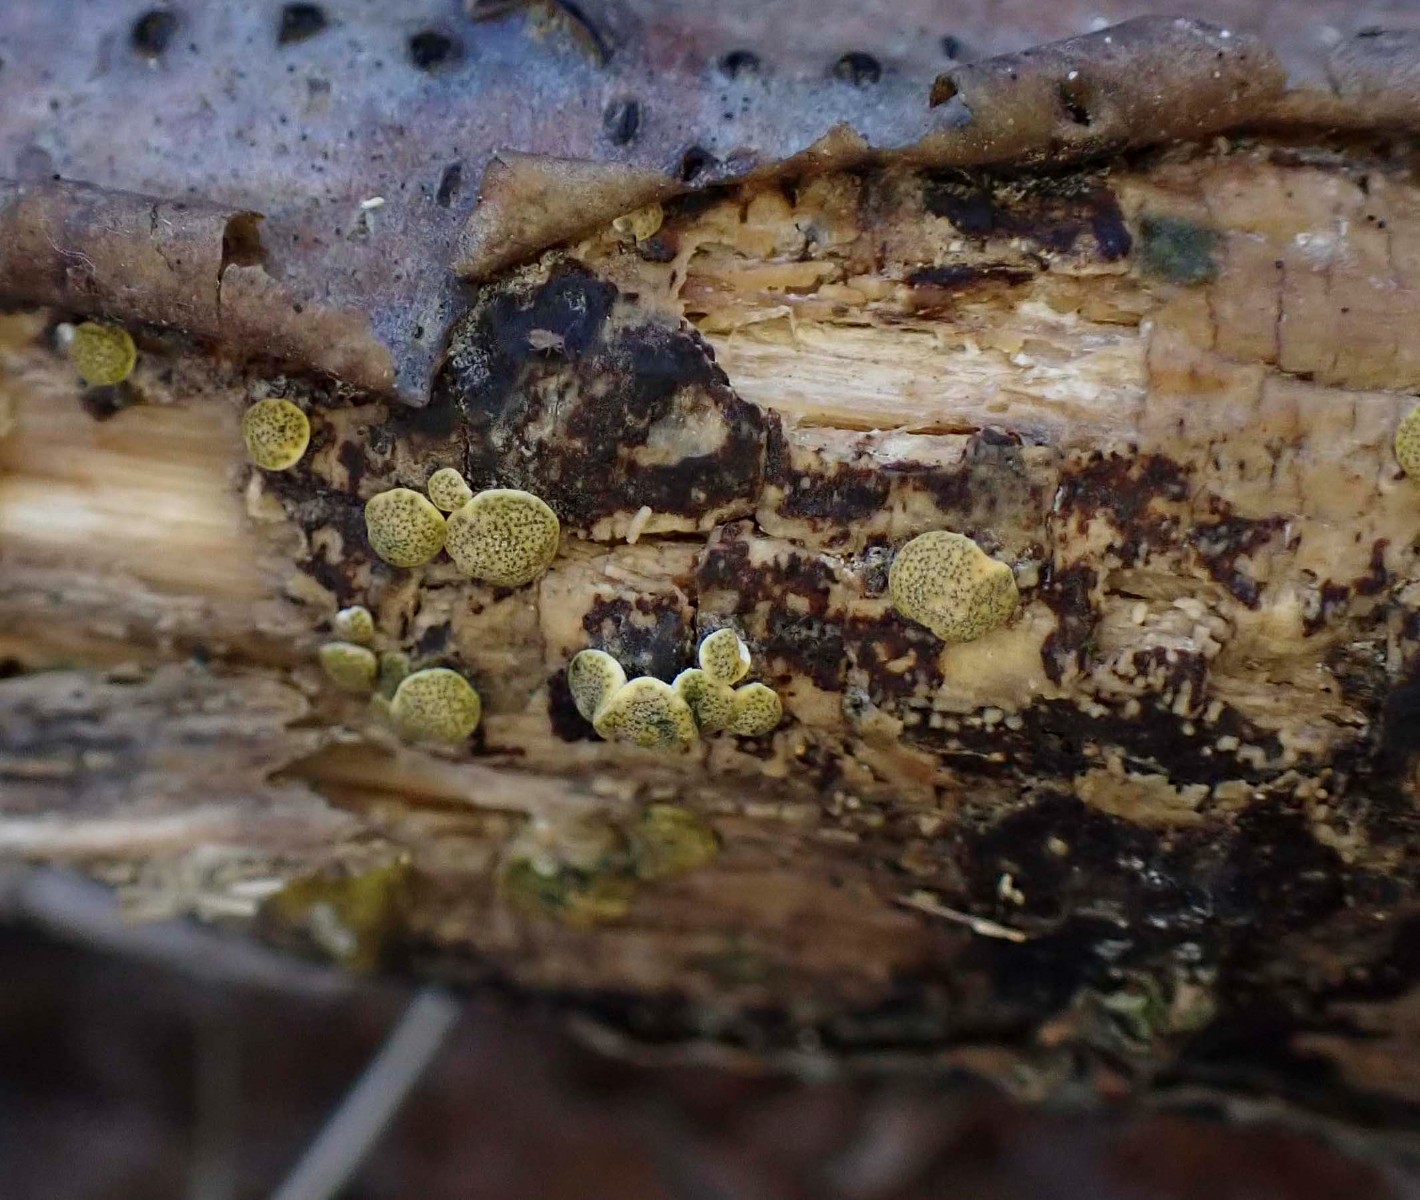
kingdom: Fungi
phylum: Ascomycota
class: Sordariomycetes
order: Hypocreales
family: Hypocreaceae
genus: Trichoderma
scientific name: Trichoderma aureoviride
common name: æggegul kødkerne
